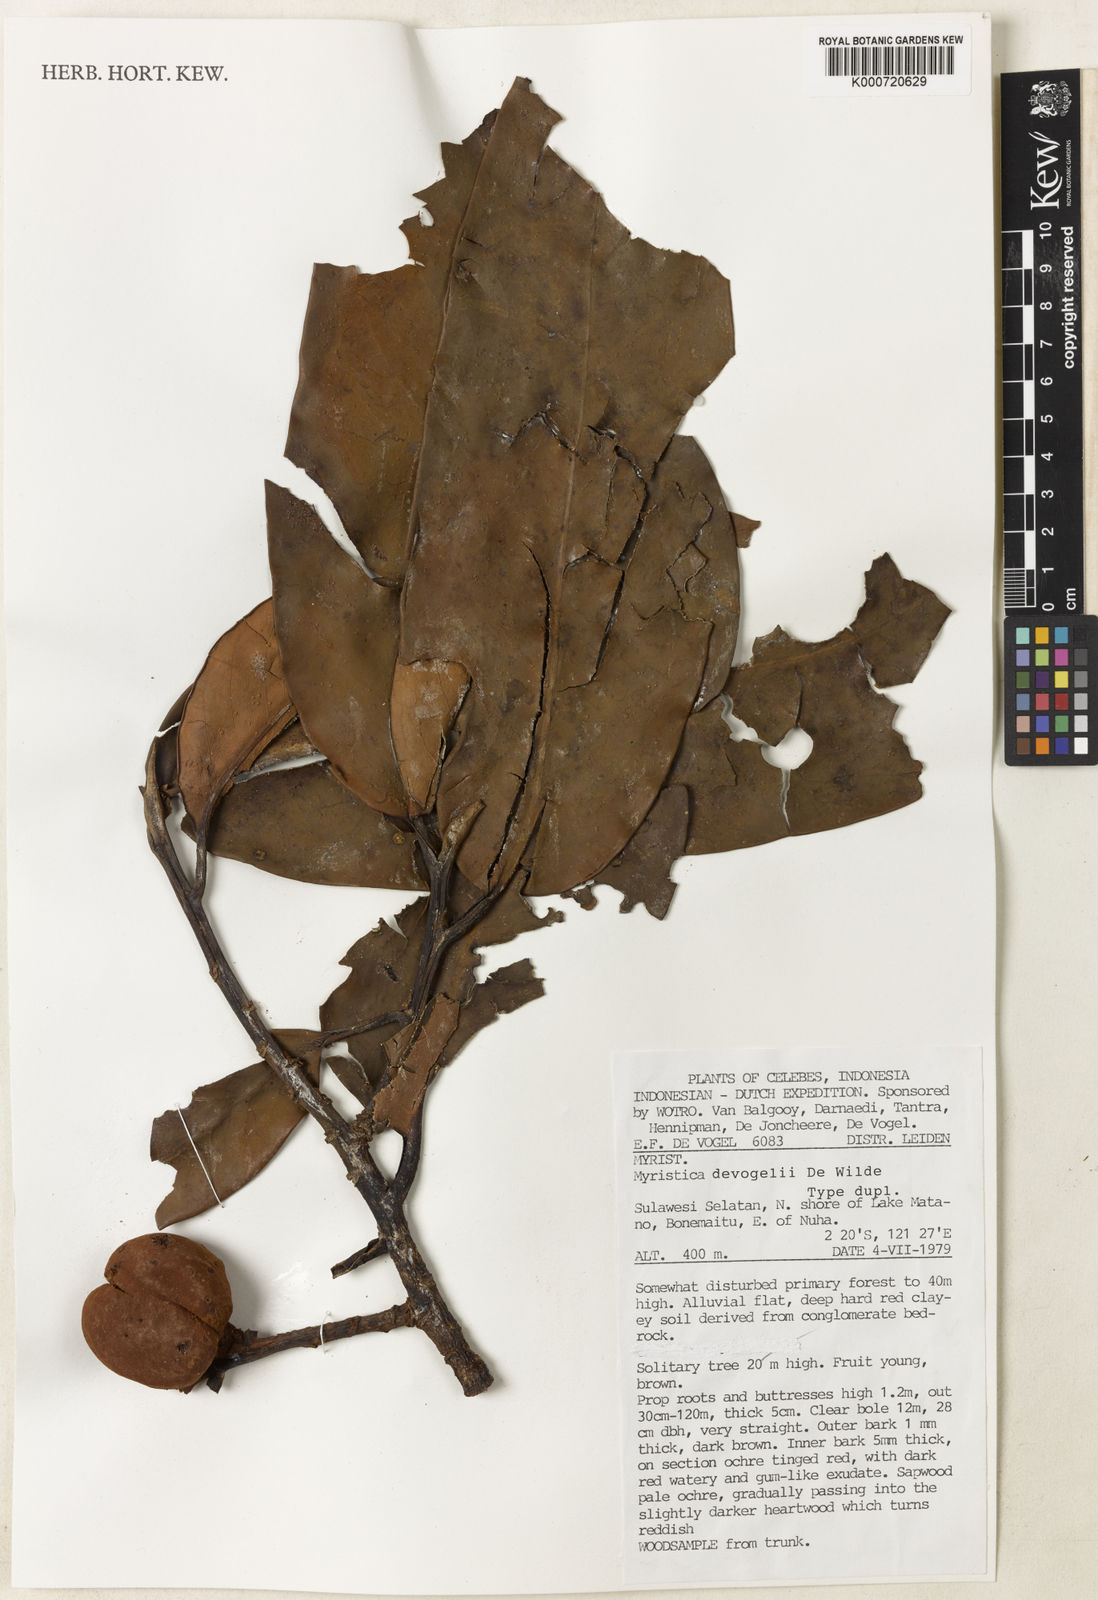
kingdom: Plantae
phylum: Tracheophyta
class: Magnoliopsida
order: Magnoliales
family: Myristicaceae
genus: Myristica
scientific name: Myristica devogelii
